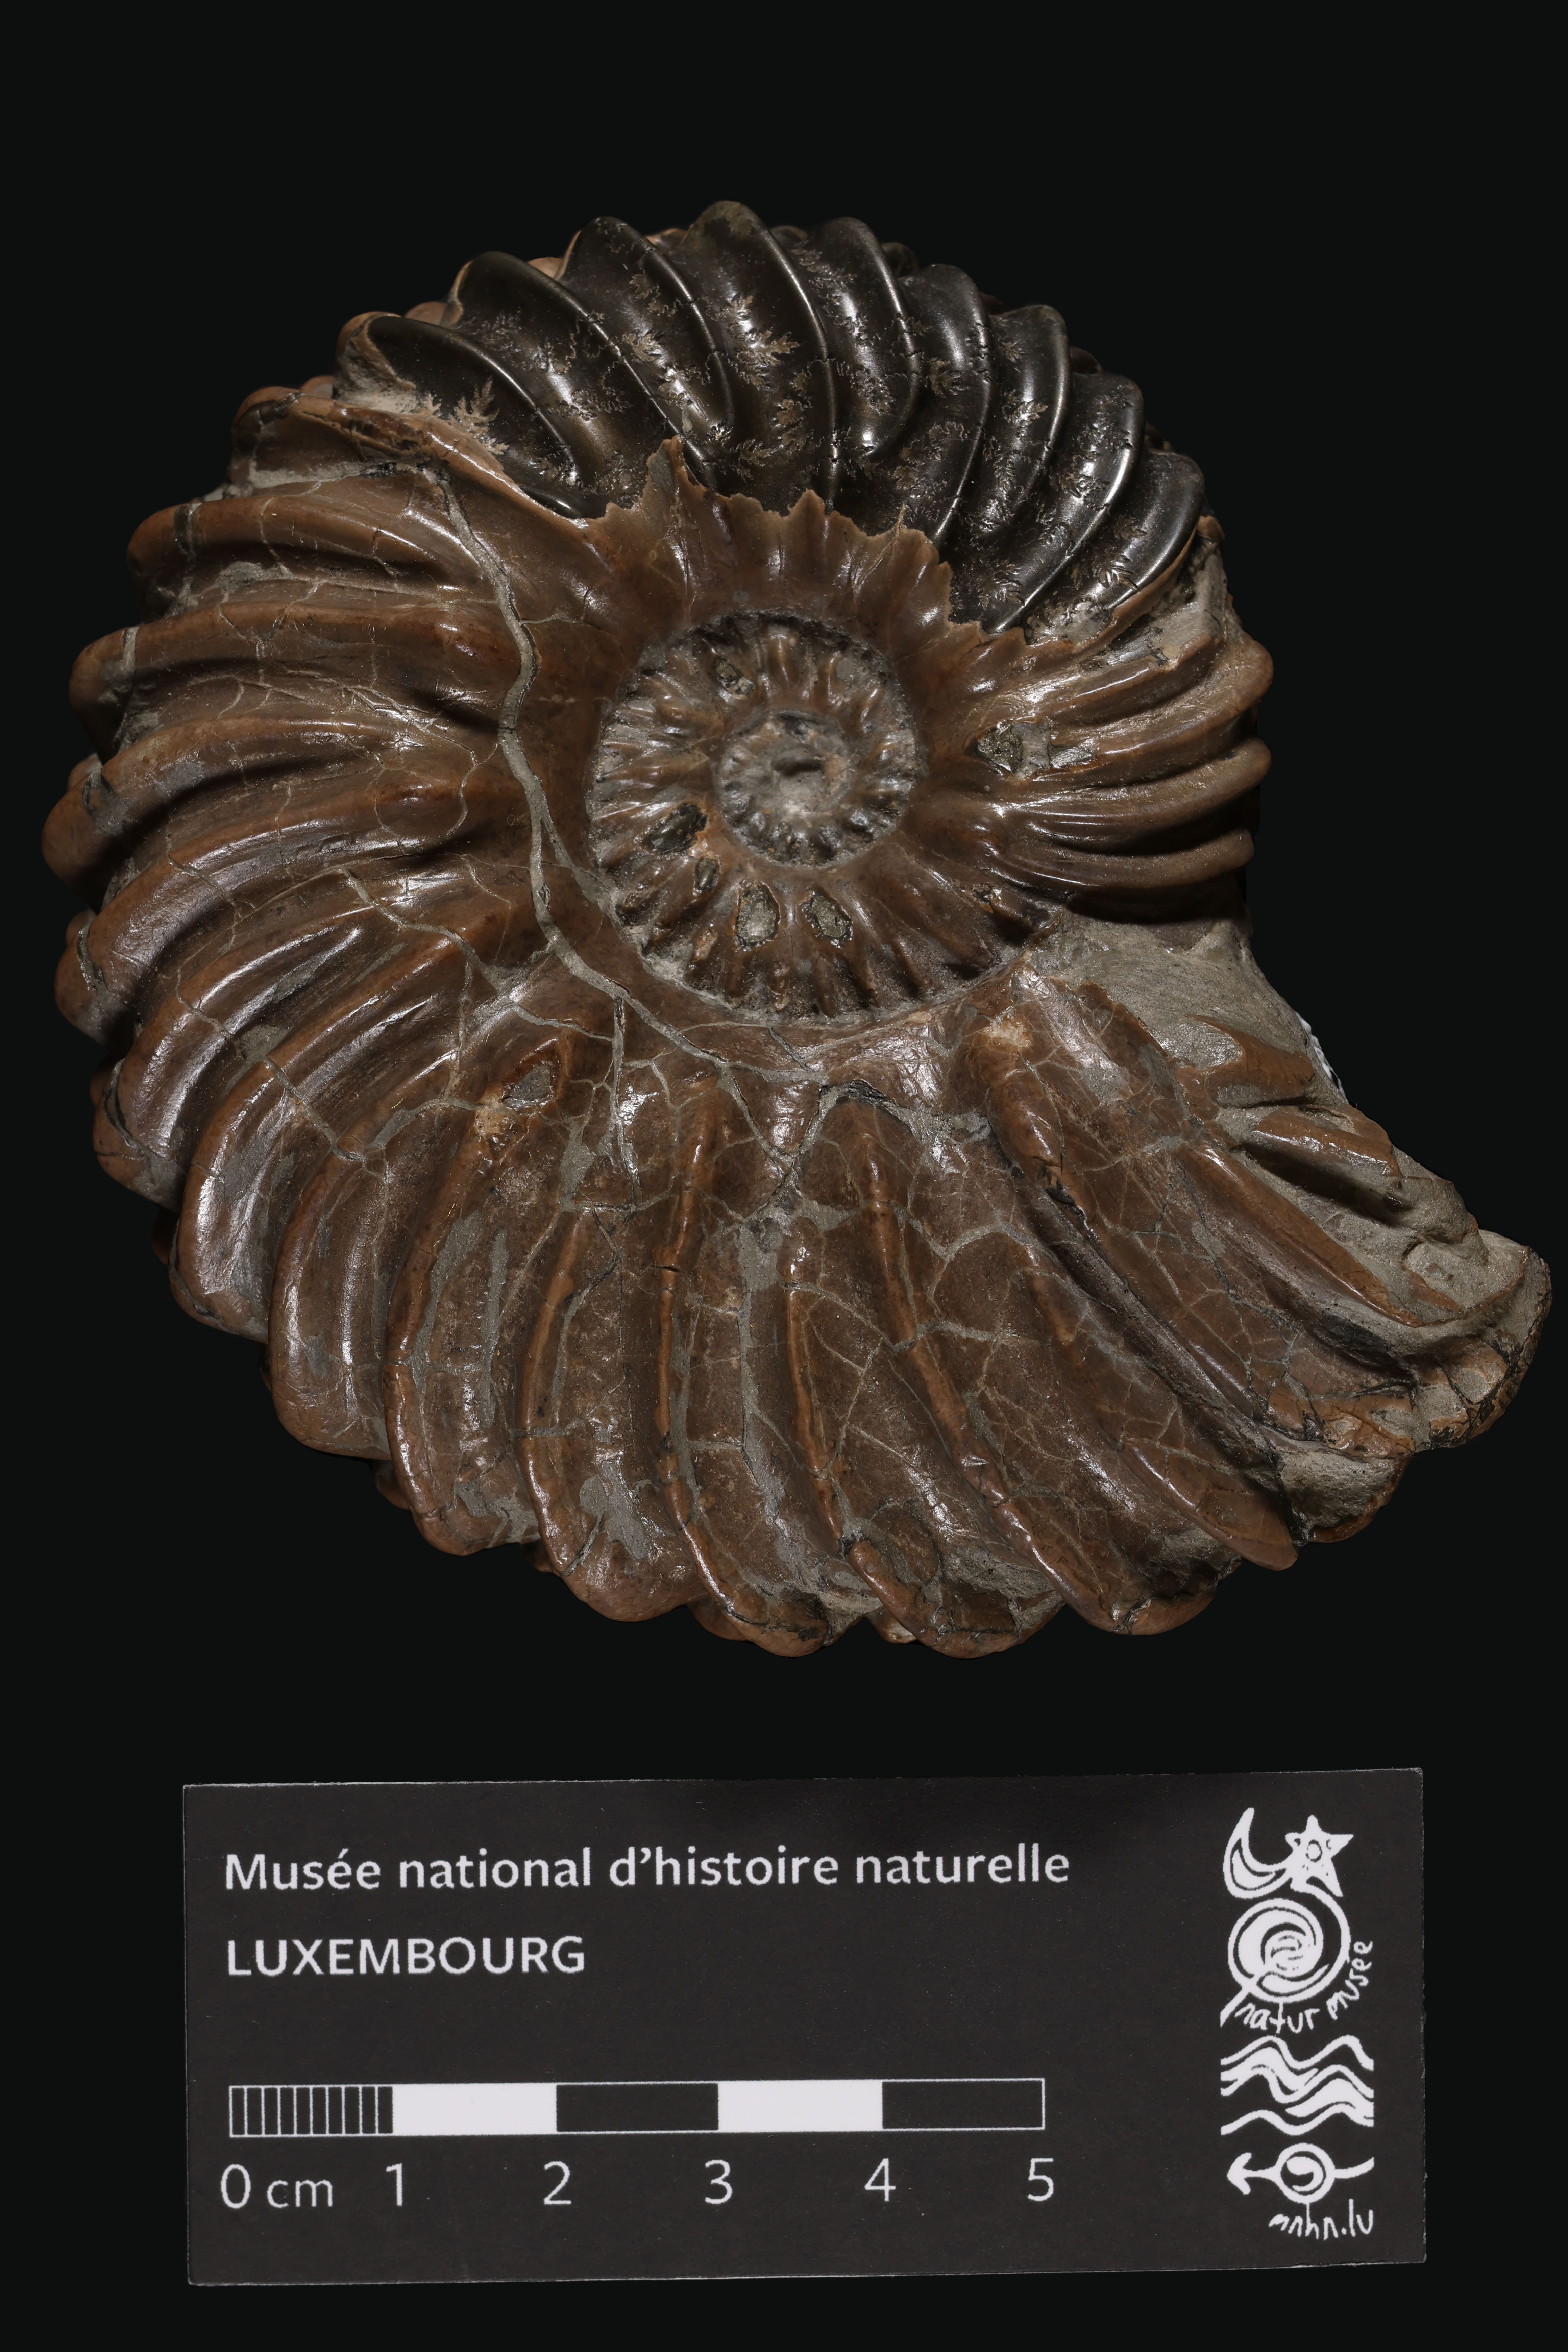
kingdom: Animalia
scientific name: Animalia
